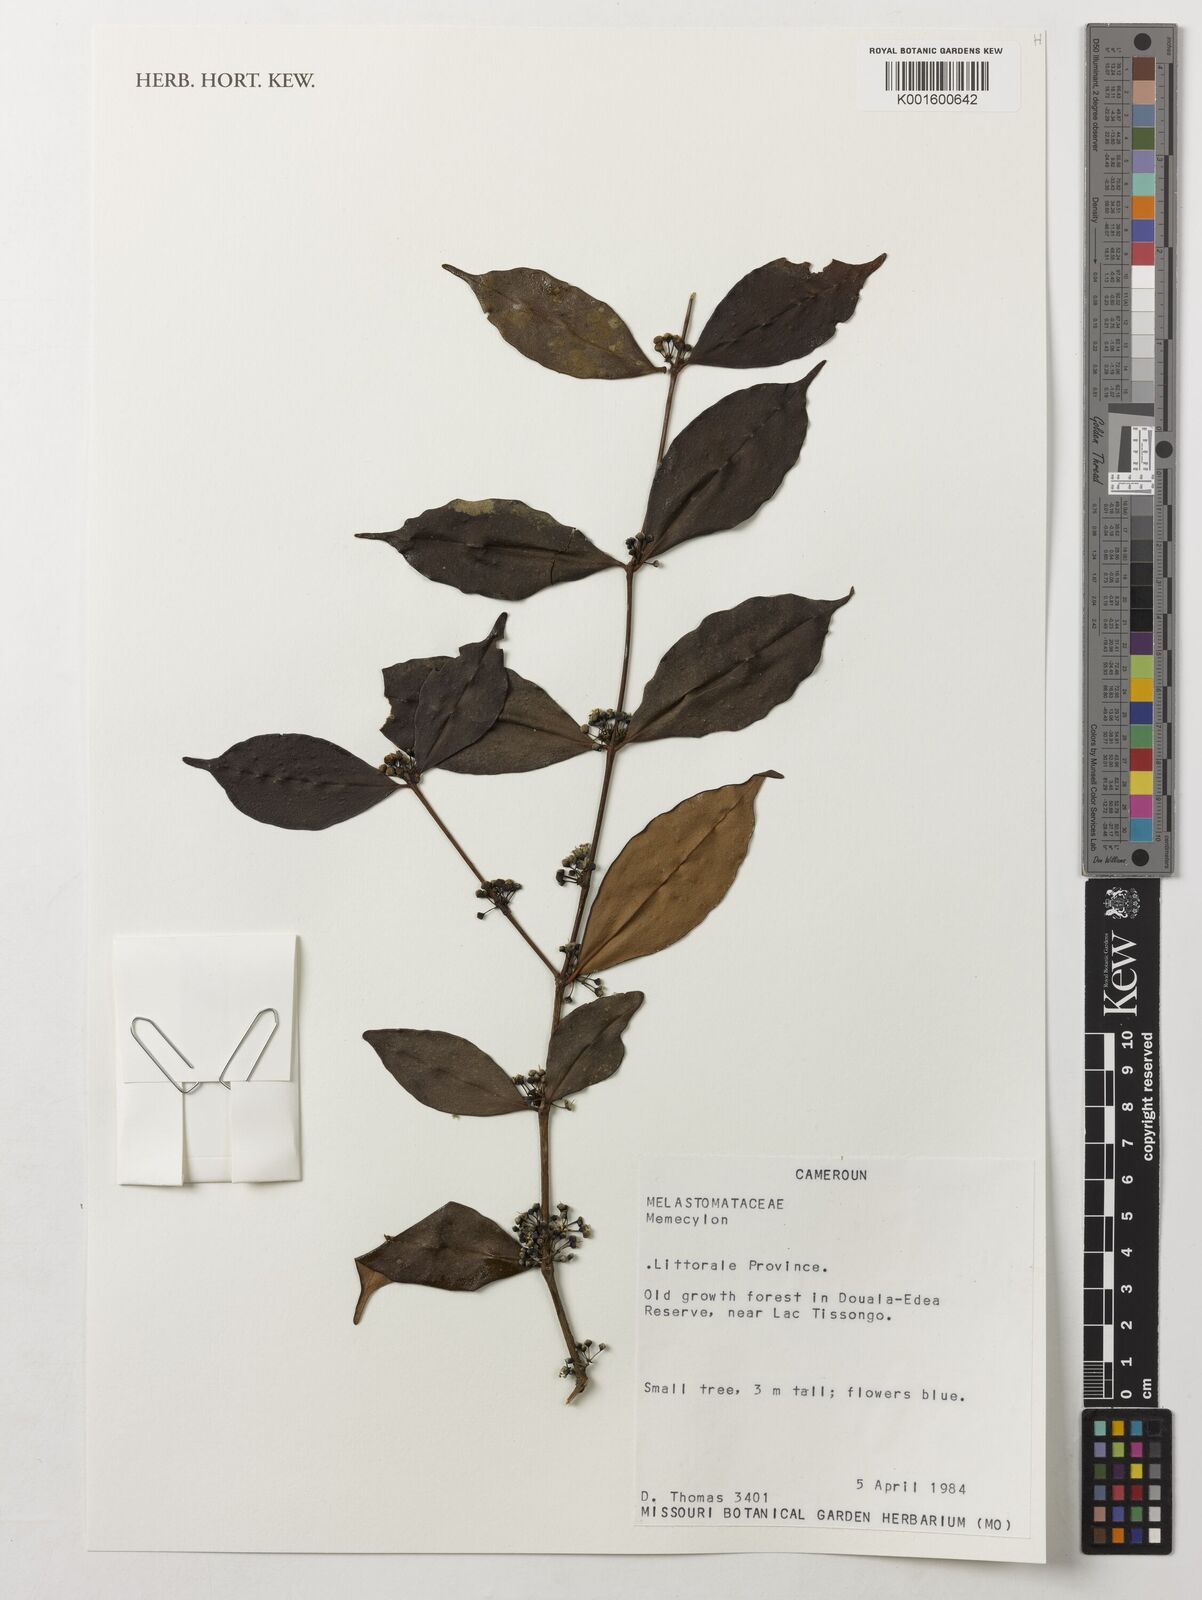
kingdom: Plantae
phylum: Tracheophyta
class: Magnoliopsida
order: Myrtales
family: Melastomataceae
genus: Memecylon
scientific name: Memecylon
